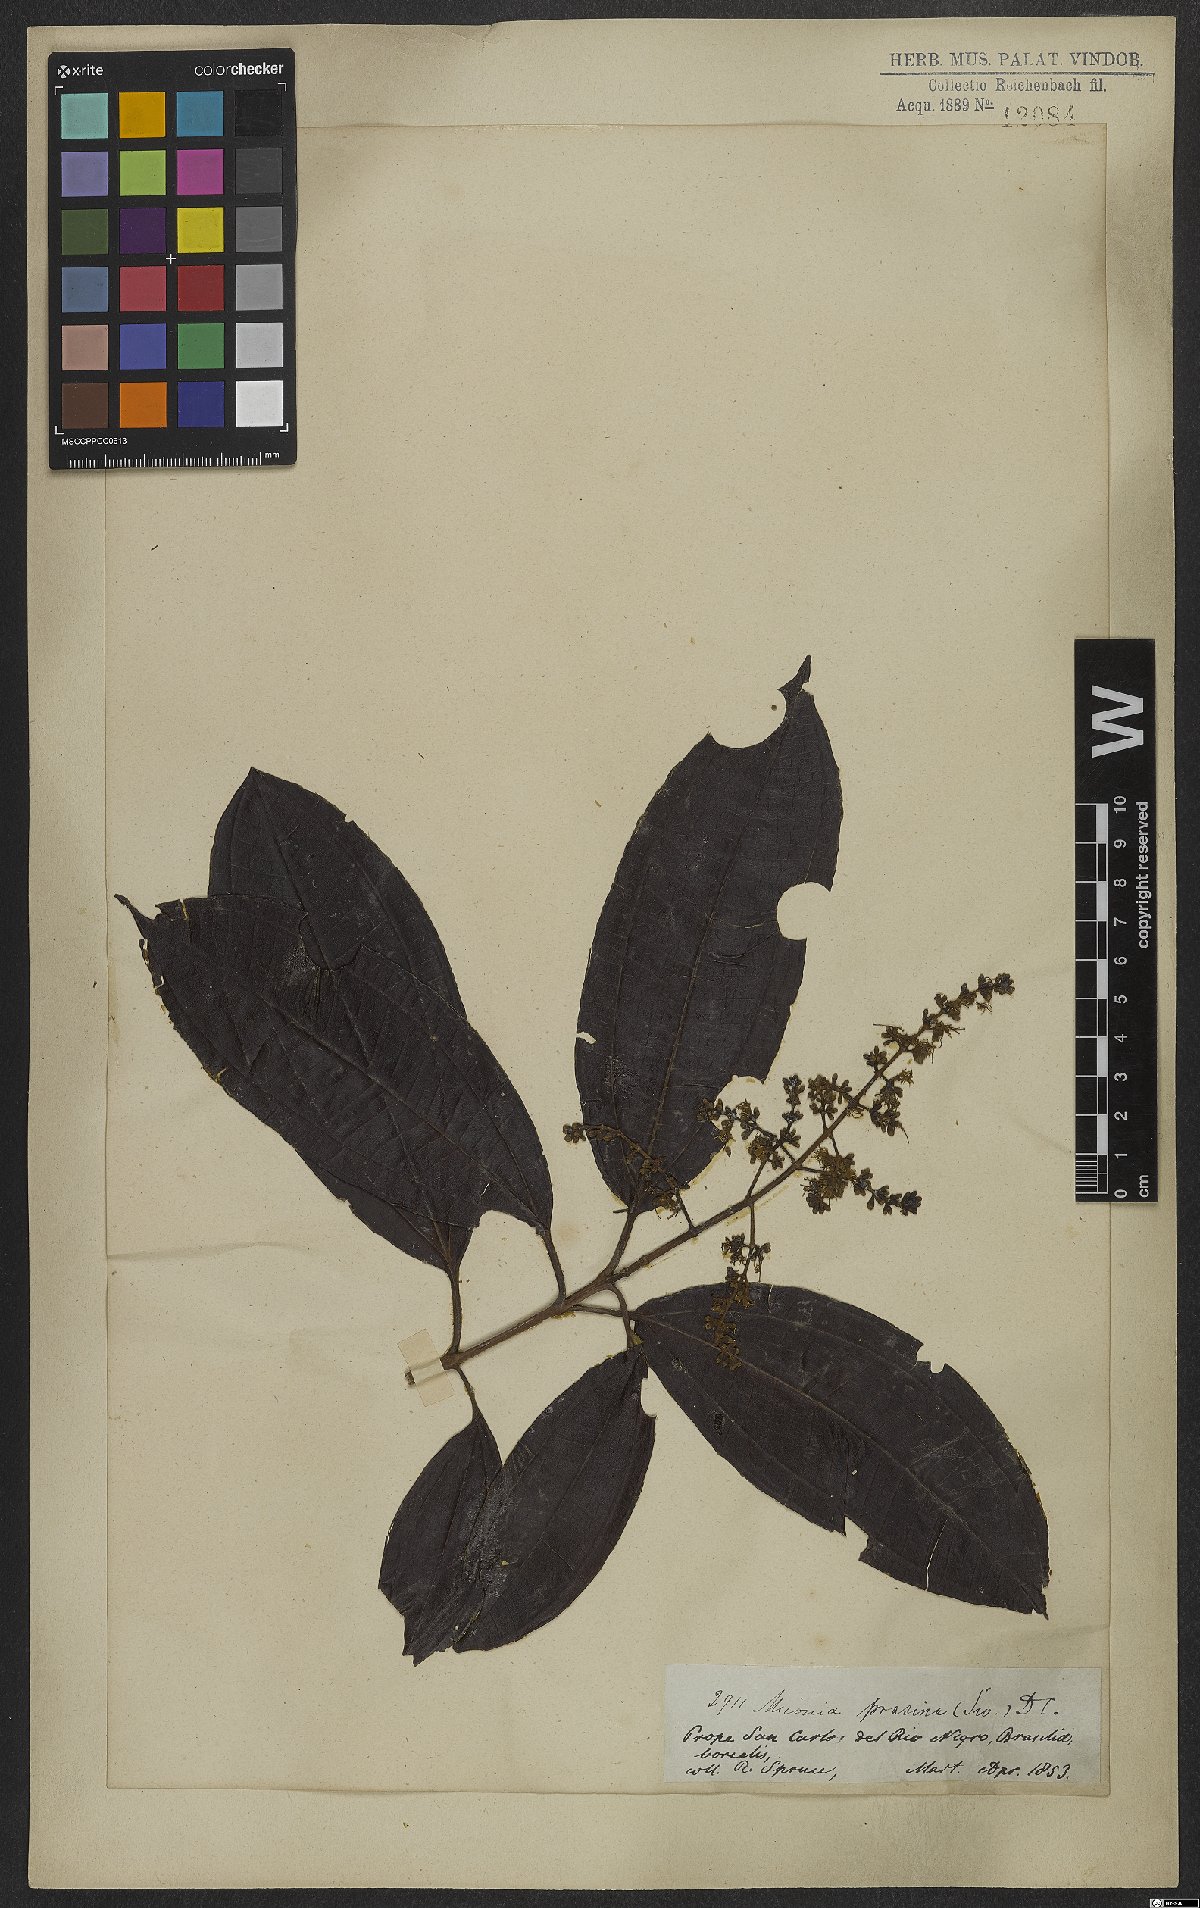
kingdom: Plantae
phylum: Tracheophyta
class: Magnoliopsida
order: Myrtales
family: Melastomataceae
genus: Miconia
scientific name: Miconia prasina
